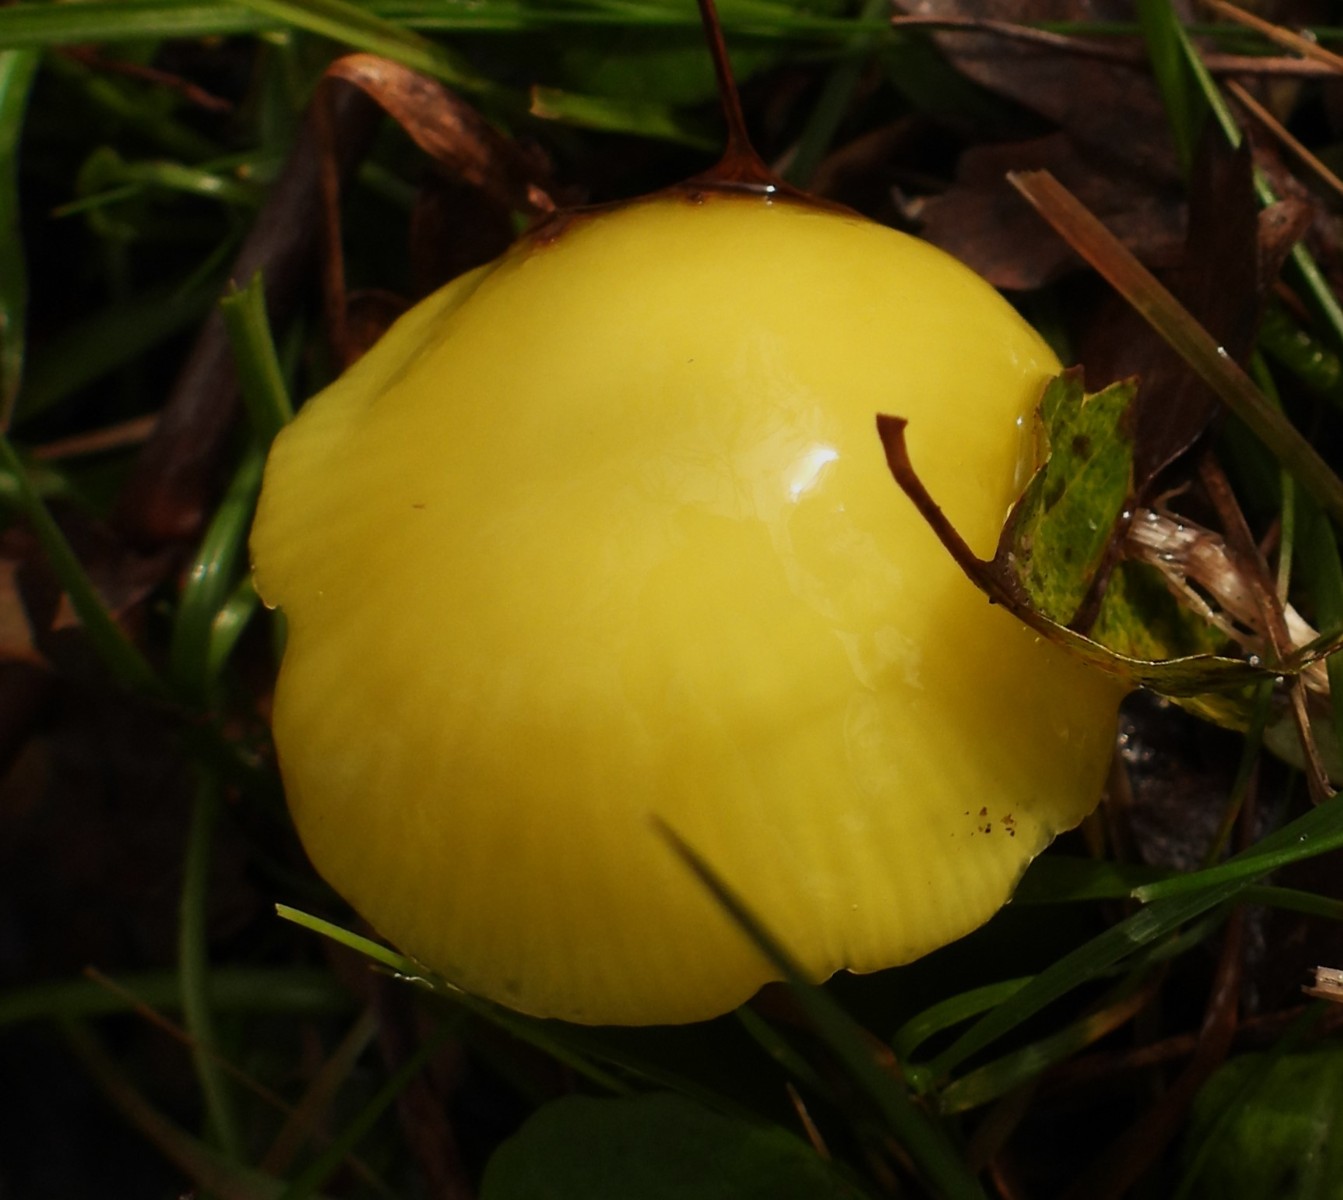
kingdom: Fungi
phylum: Basidiomycota
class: Agaricomycetes
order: Agaricales
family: Hygrophoraceae
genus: Hygrocybe
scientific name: Hygrocybe chlorophana
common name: gul vokshat
